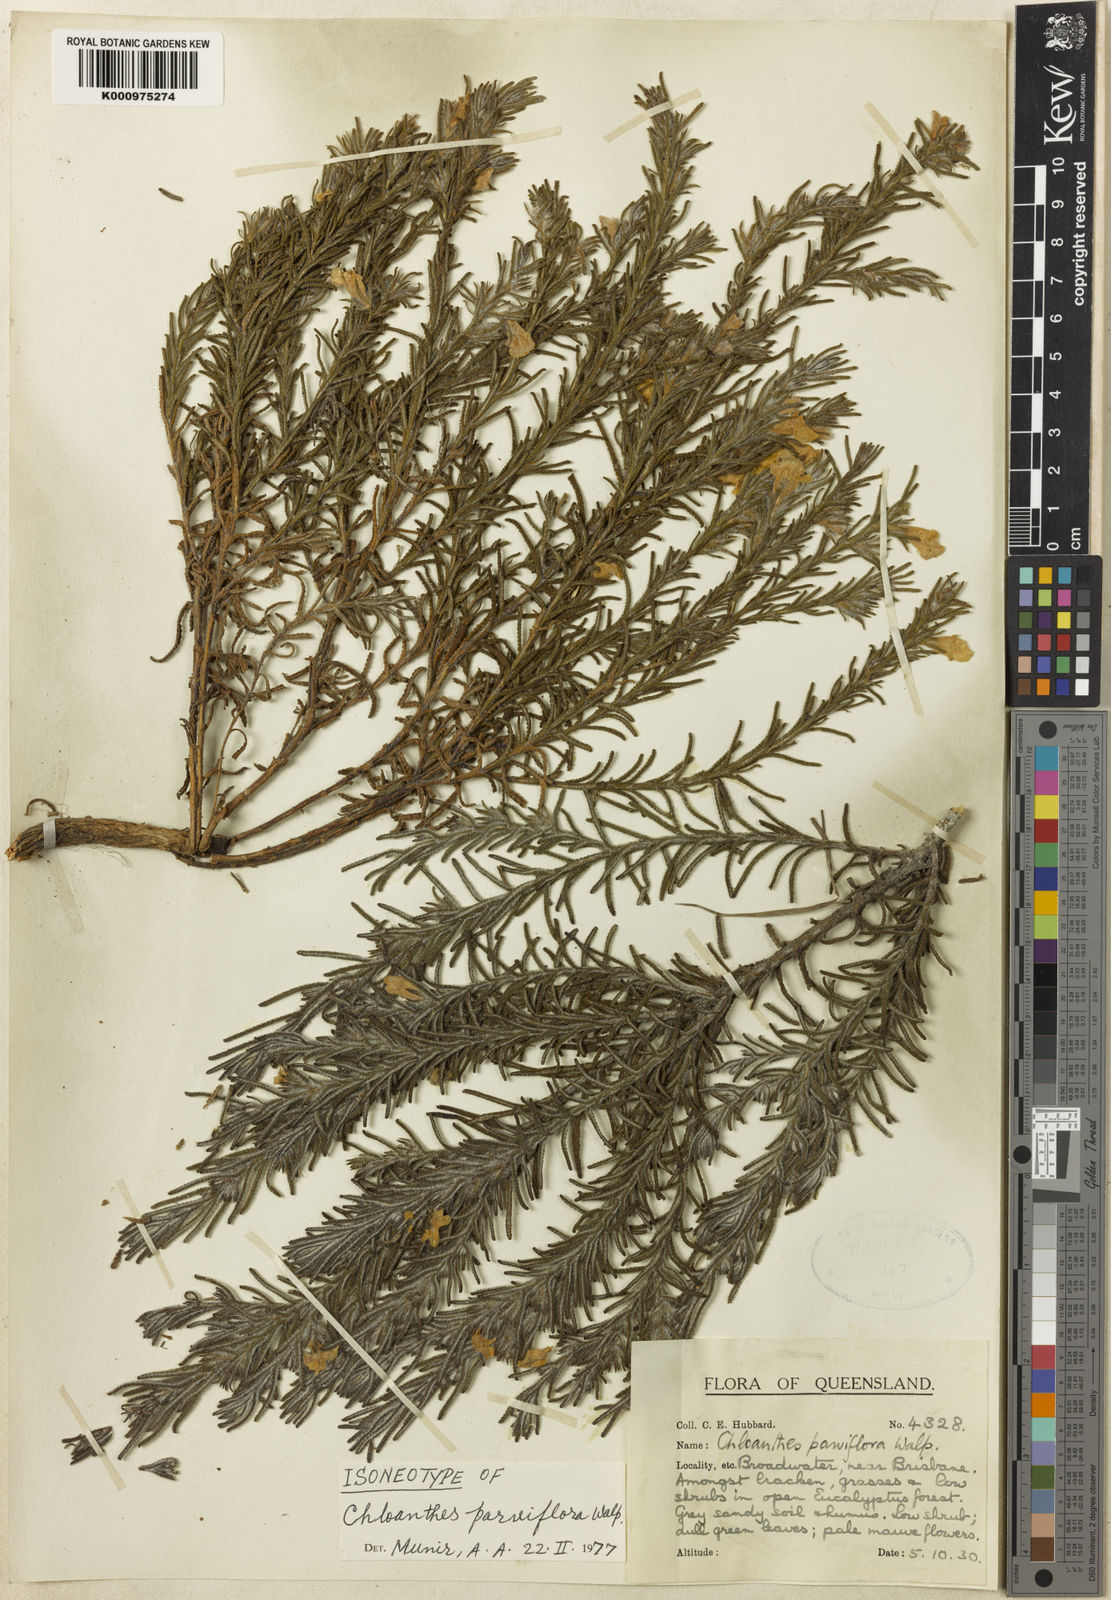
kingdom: Plantae
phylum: Tracheophyta
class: Magnoliopsida
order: Lamiales
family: Lamiaceae
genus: Chloanthes
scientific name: Chloanthes parviflora
